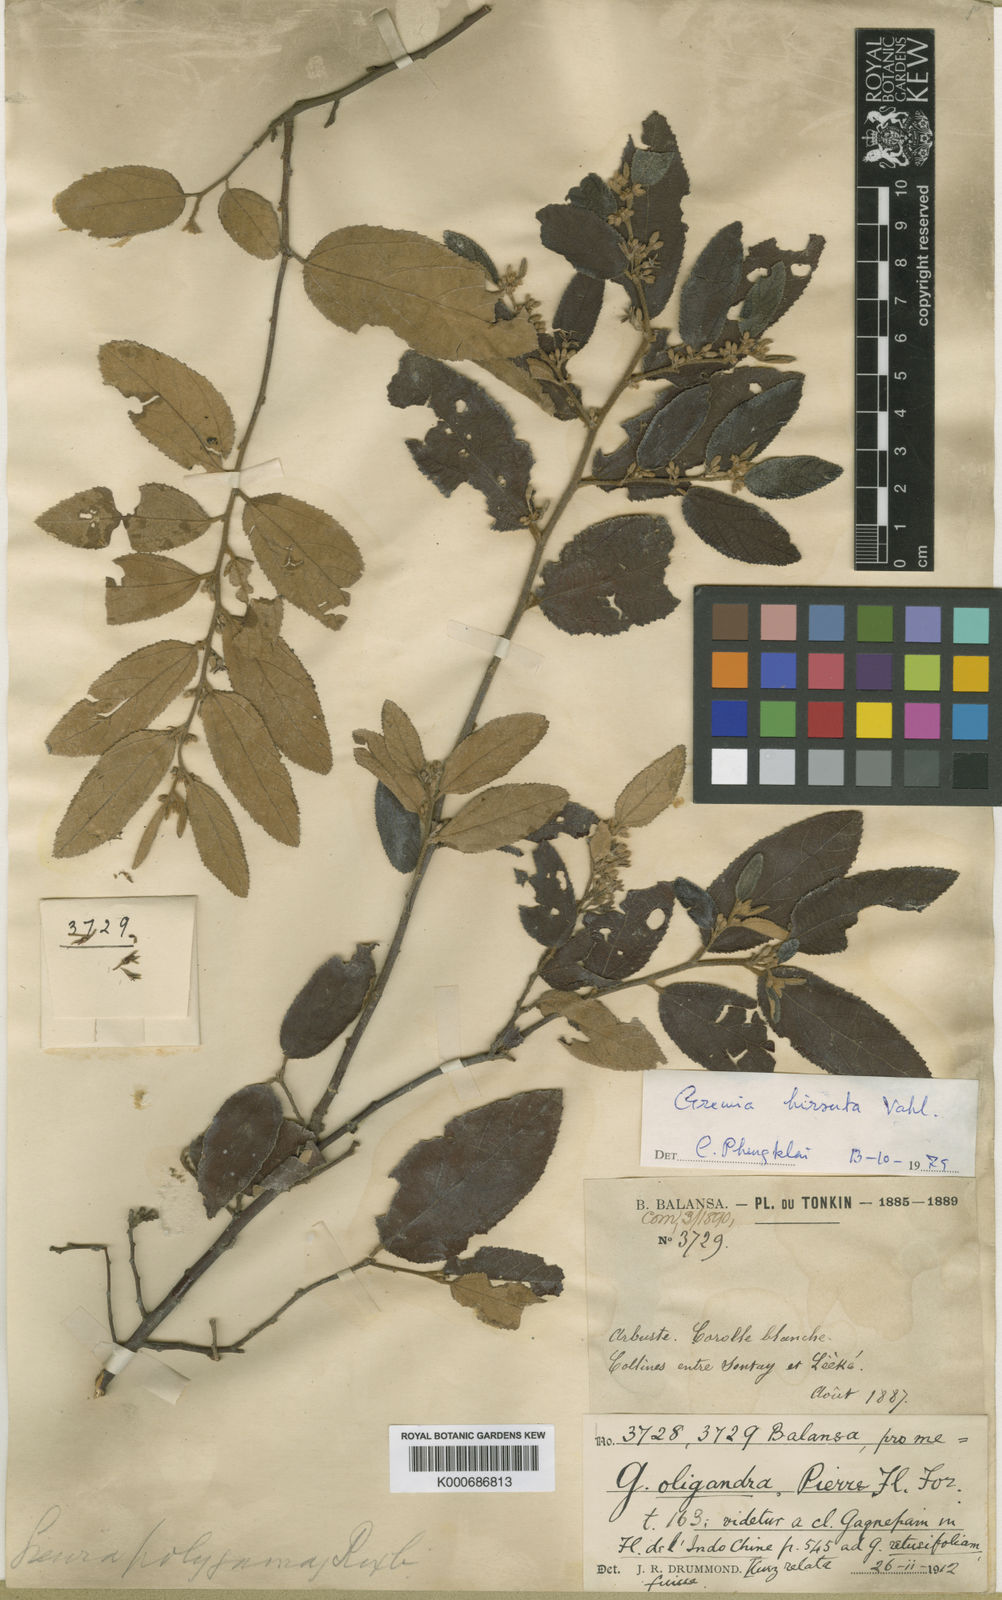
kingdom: Plantae
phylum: Tracheophyta
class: Magnoliopsida
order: Malvales
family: Malvaceae
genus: Grewia
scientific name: Grewia hirsuta
